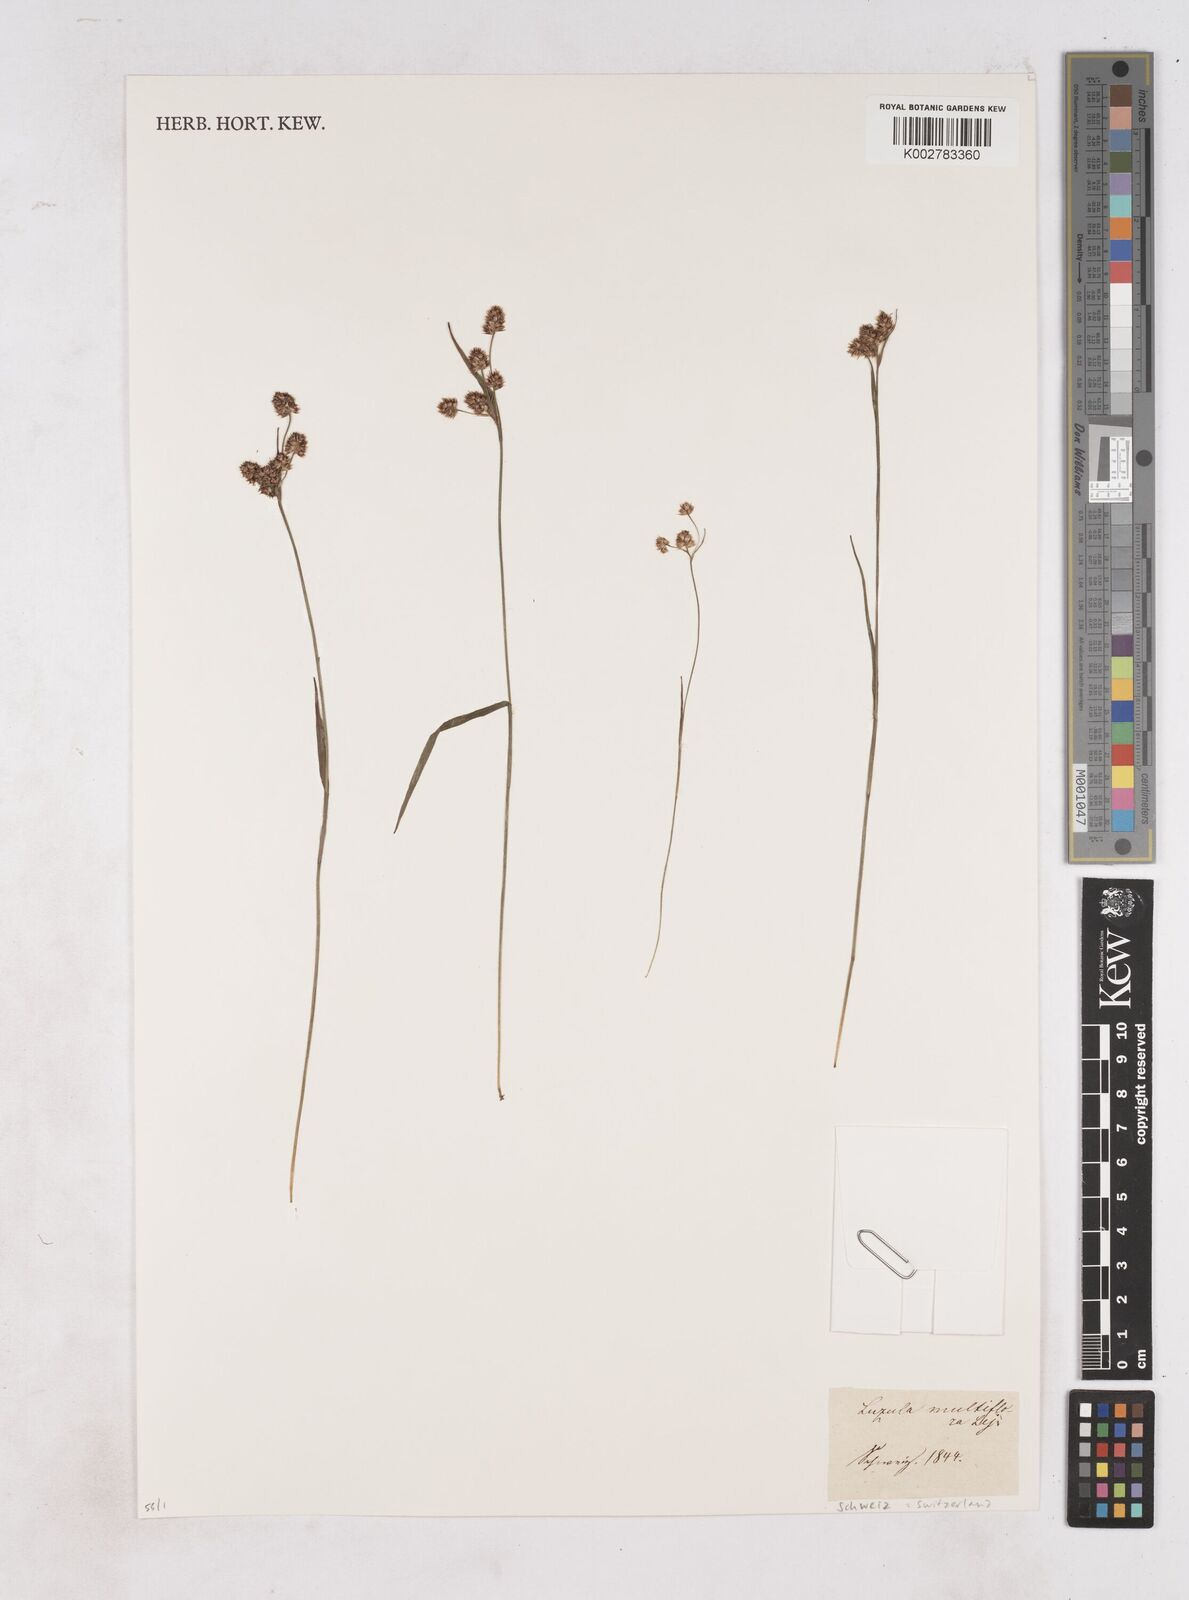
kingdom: Plantae
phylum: Tracheophyta
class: Liliopsida
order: Poales
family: Juncaceae
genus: Luzula
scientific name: Luzula multiflora
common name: Heath wood-rush
